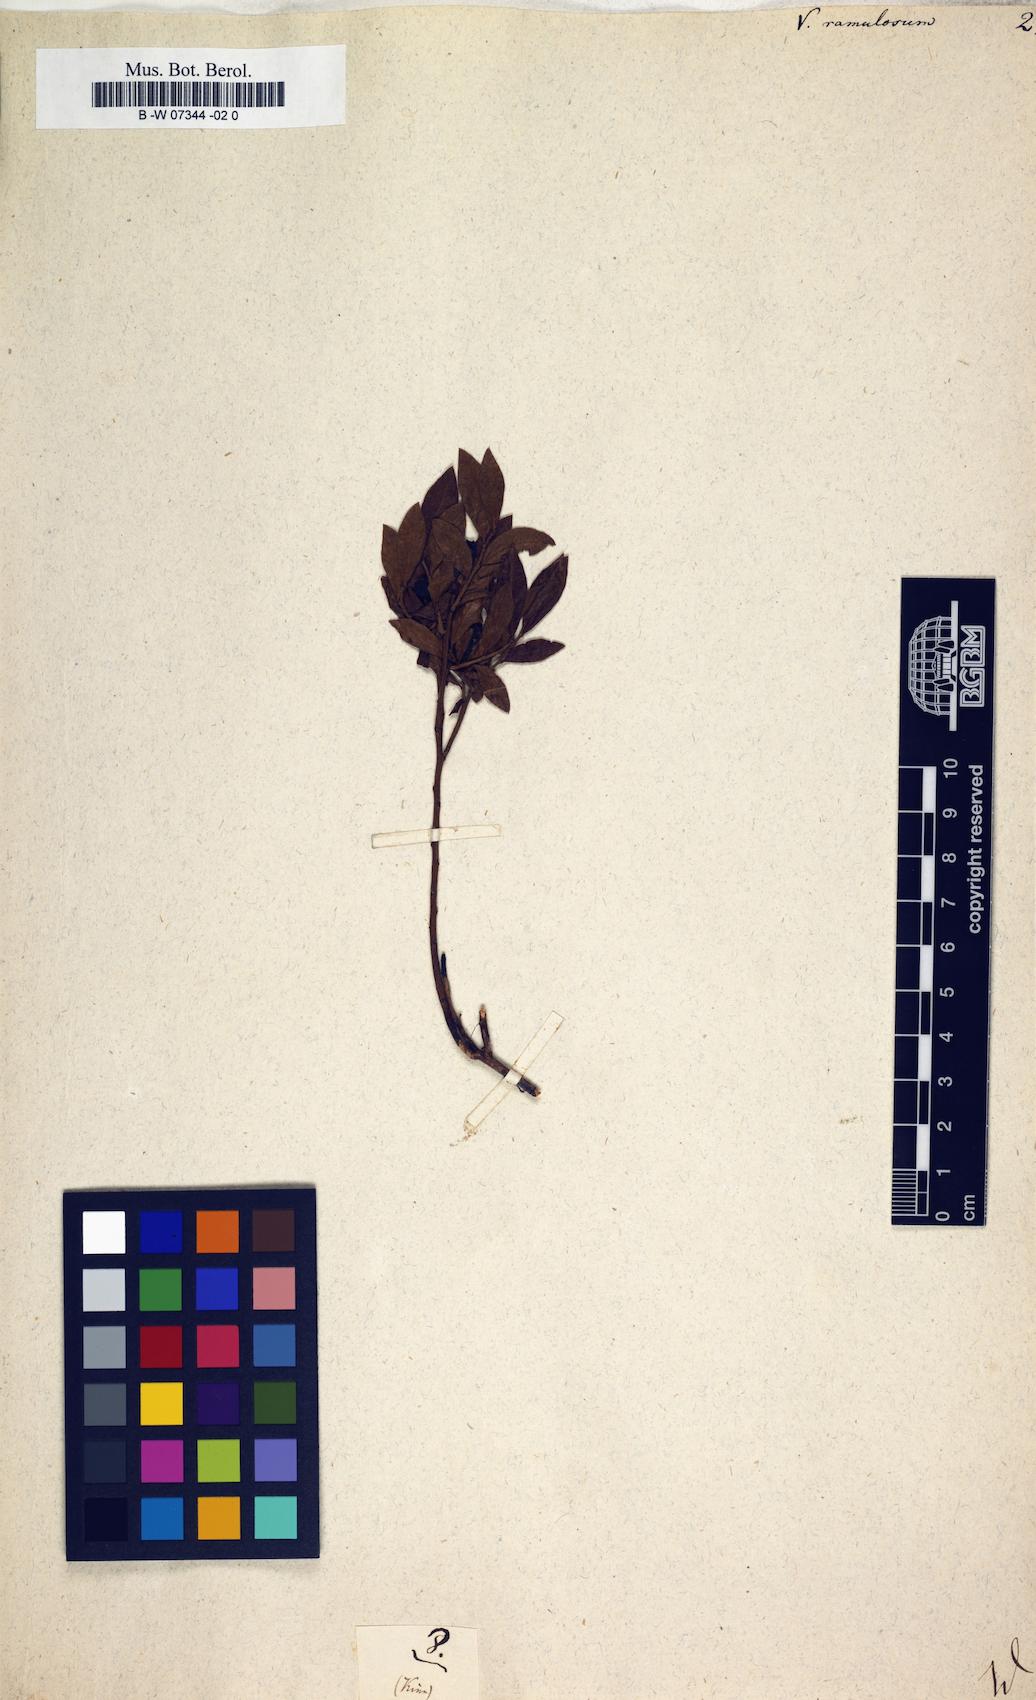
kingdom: Plantae
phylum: Tracheophyta
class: Magnoliopsida
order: Ericales
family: Ericaceae
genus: Vaccinium
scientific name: Vaccinium angustifolium
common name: Early lowbush blueberry
